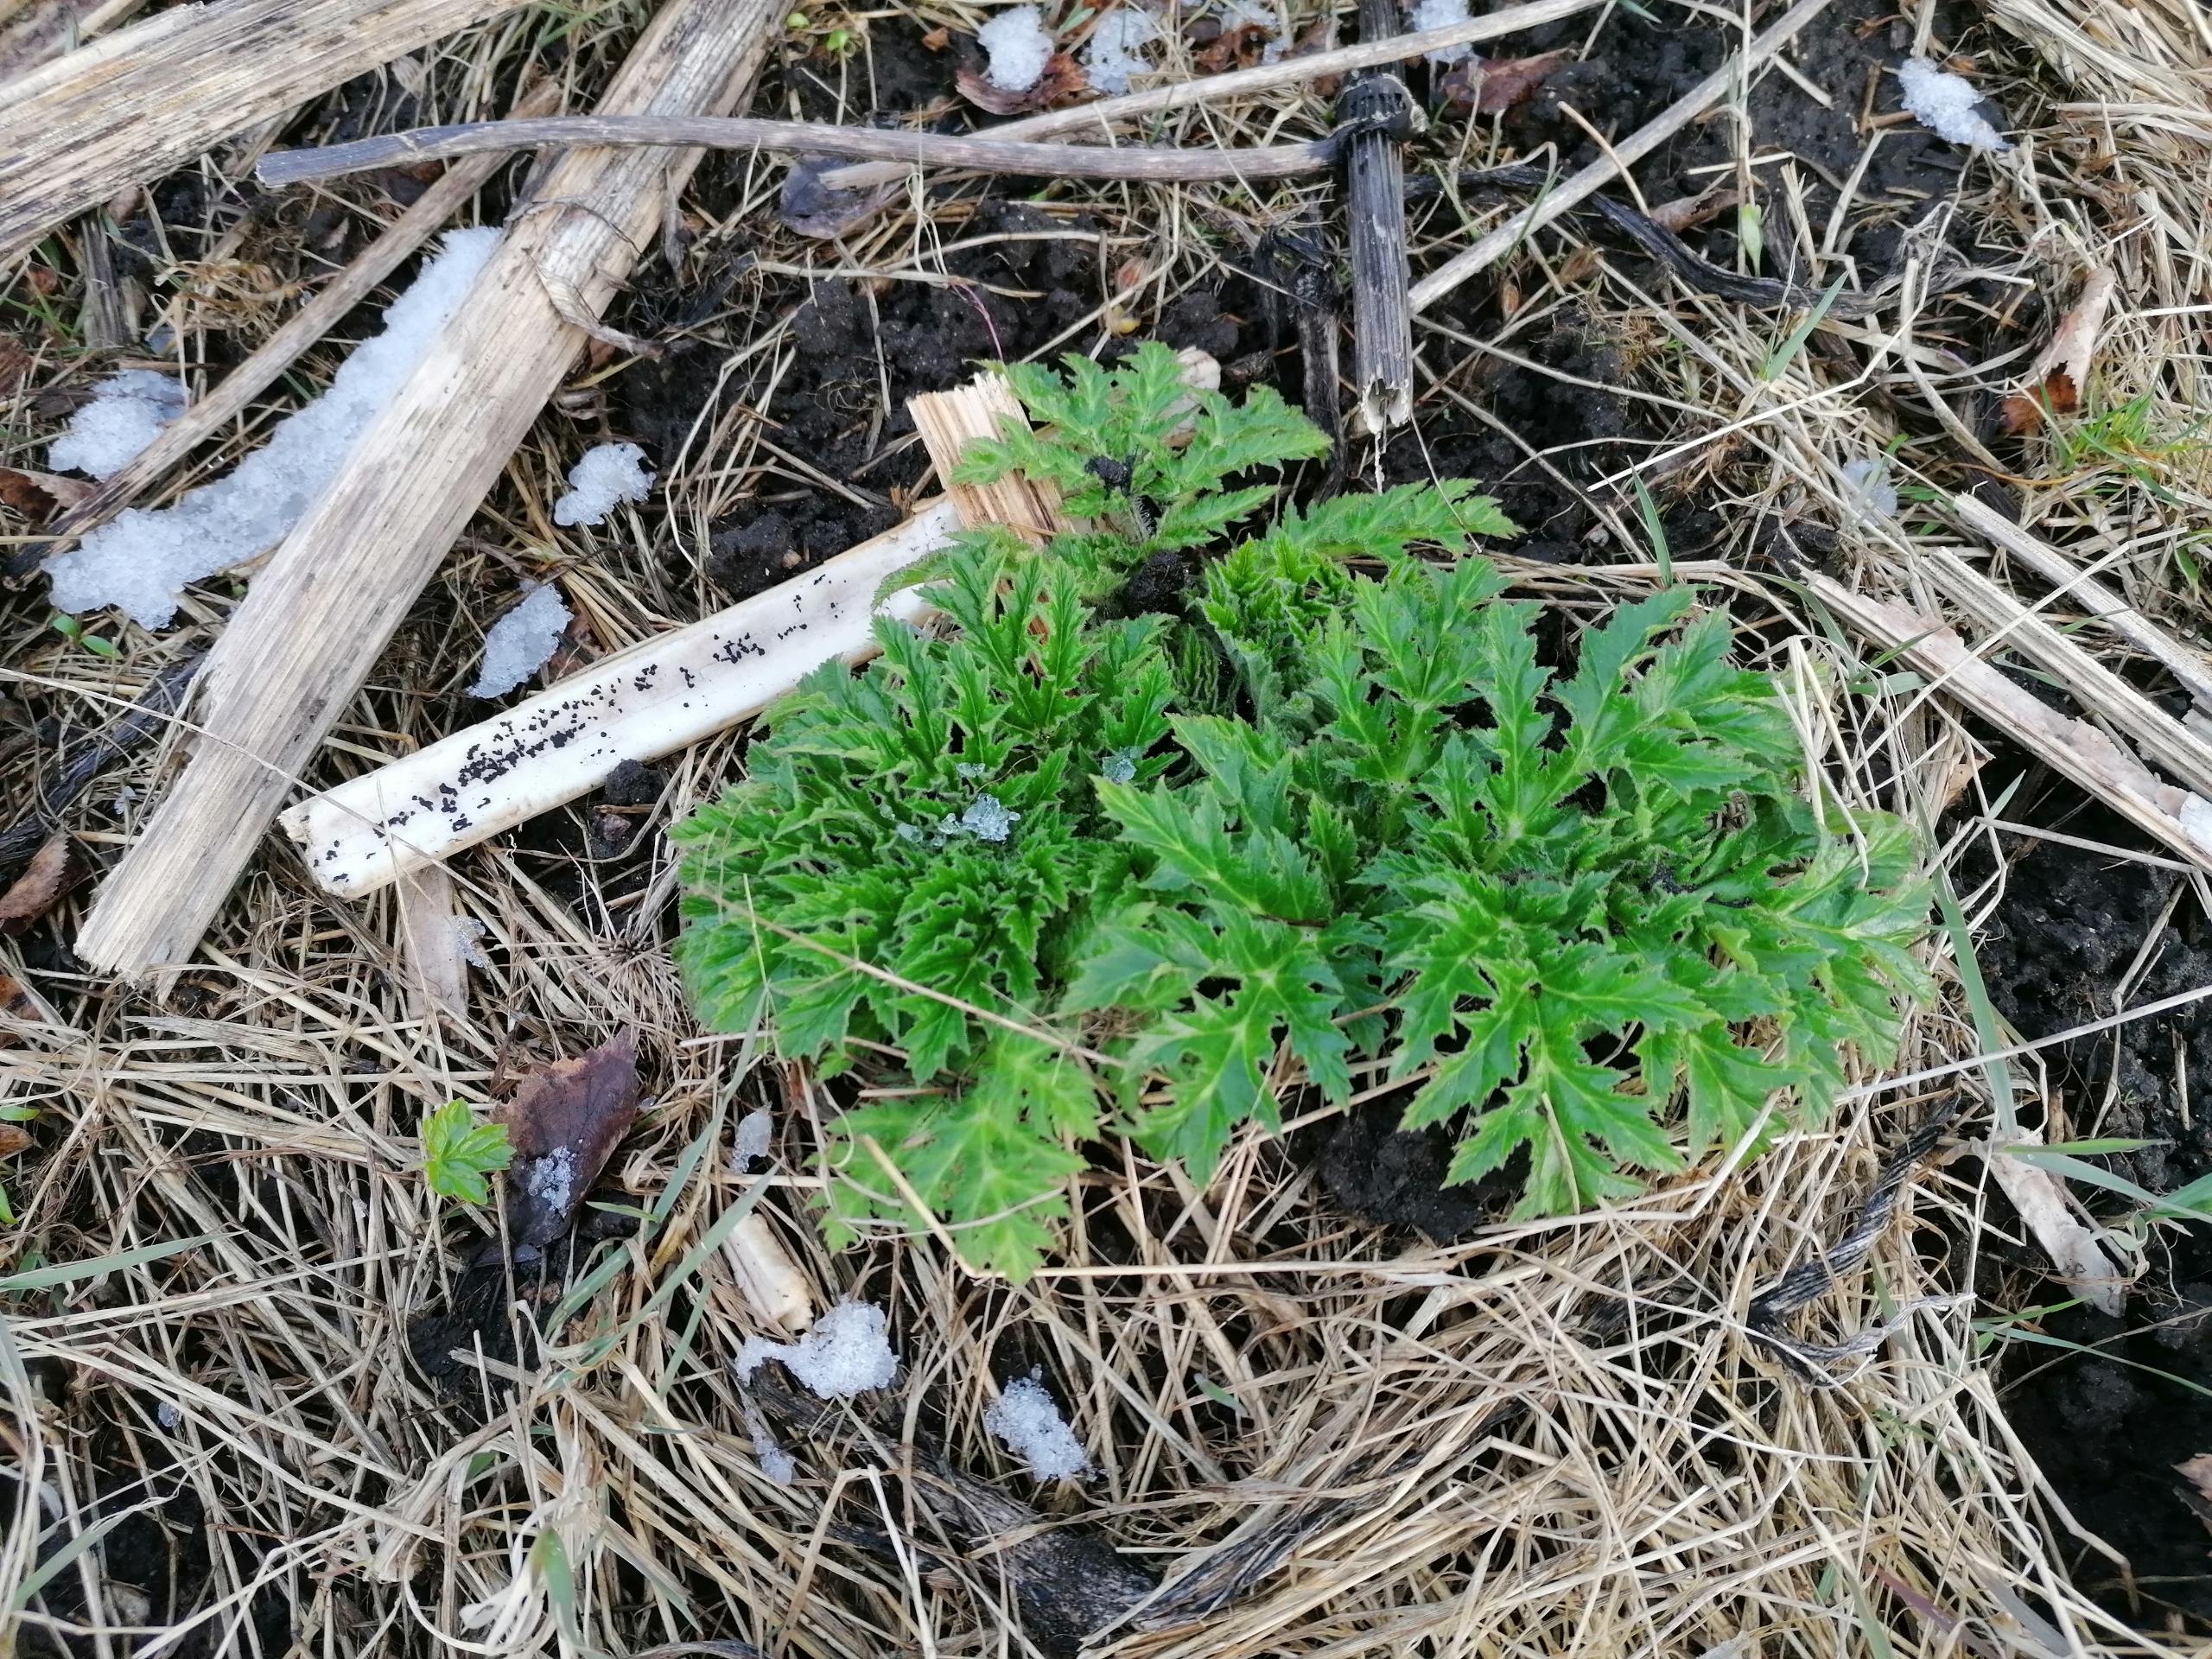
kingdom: Plantae
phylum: Tracheophyta
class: Magnoliopsida
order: Apiales
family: Apiaceae
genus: Heracleum
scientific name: Heracleum mantegazzianum
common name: Kæmpe-bjørneklo
